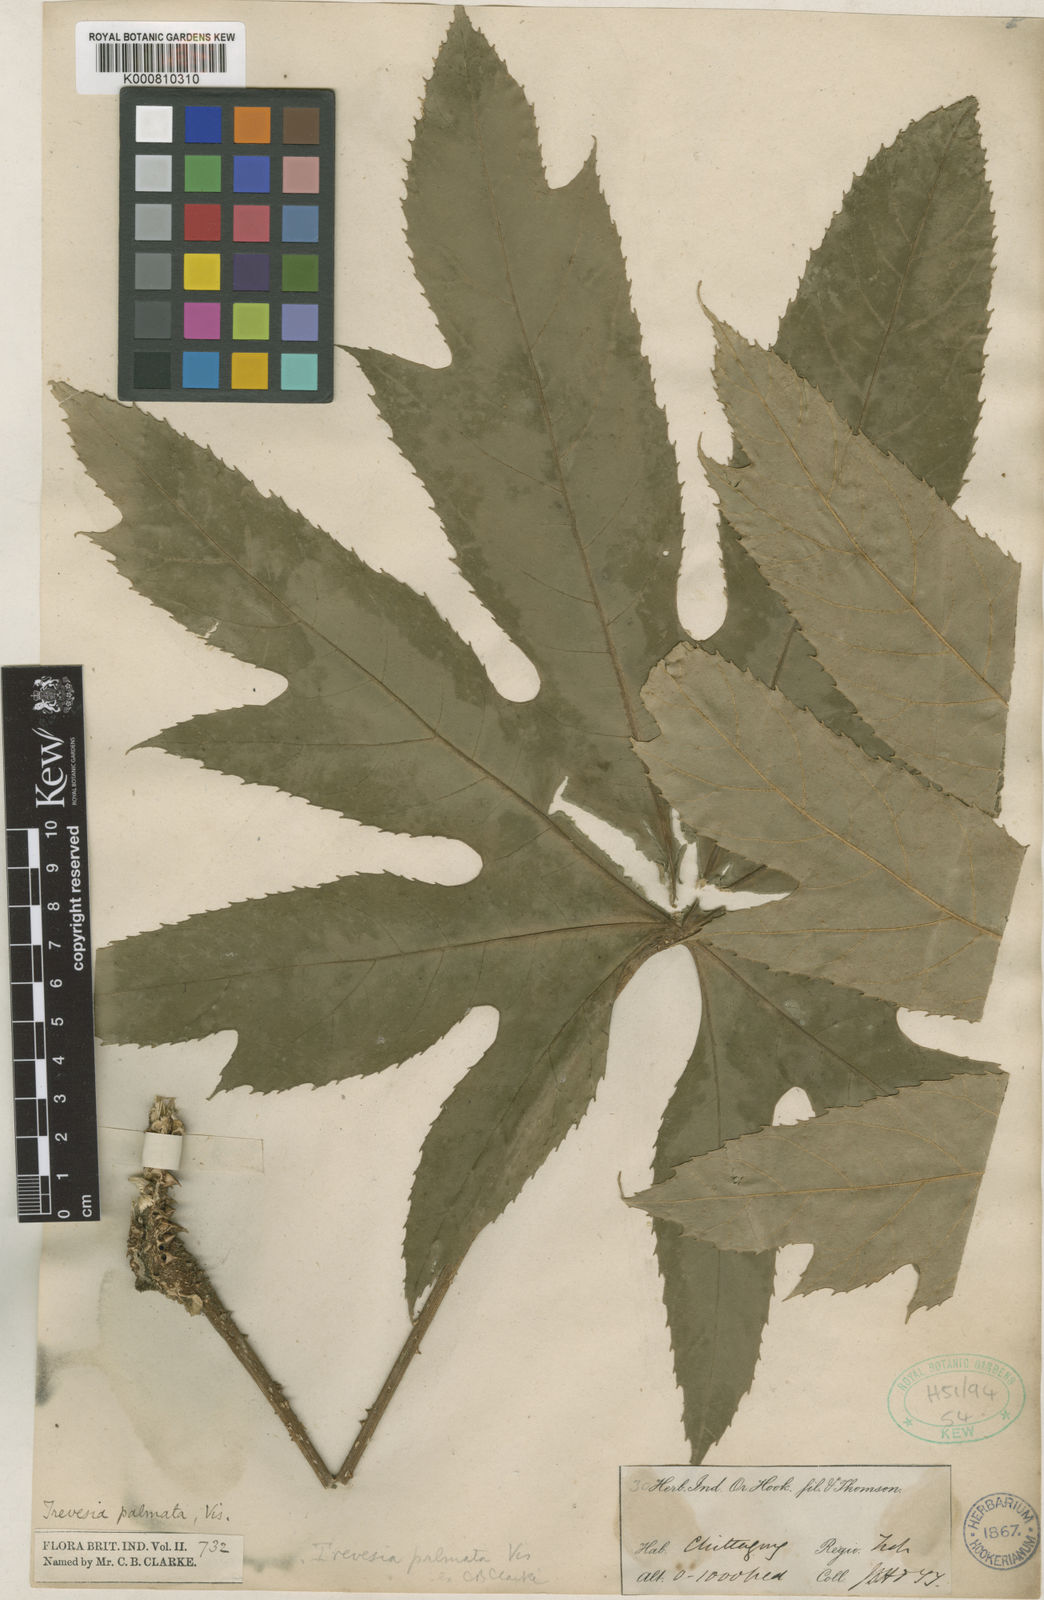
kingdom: Plantae
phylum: Tracheophyta
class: Magnoliopsida
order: Apiales
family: Araliaceae
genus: Trevesia
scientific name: Trevesia palmata
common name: Snowflakeplant
